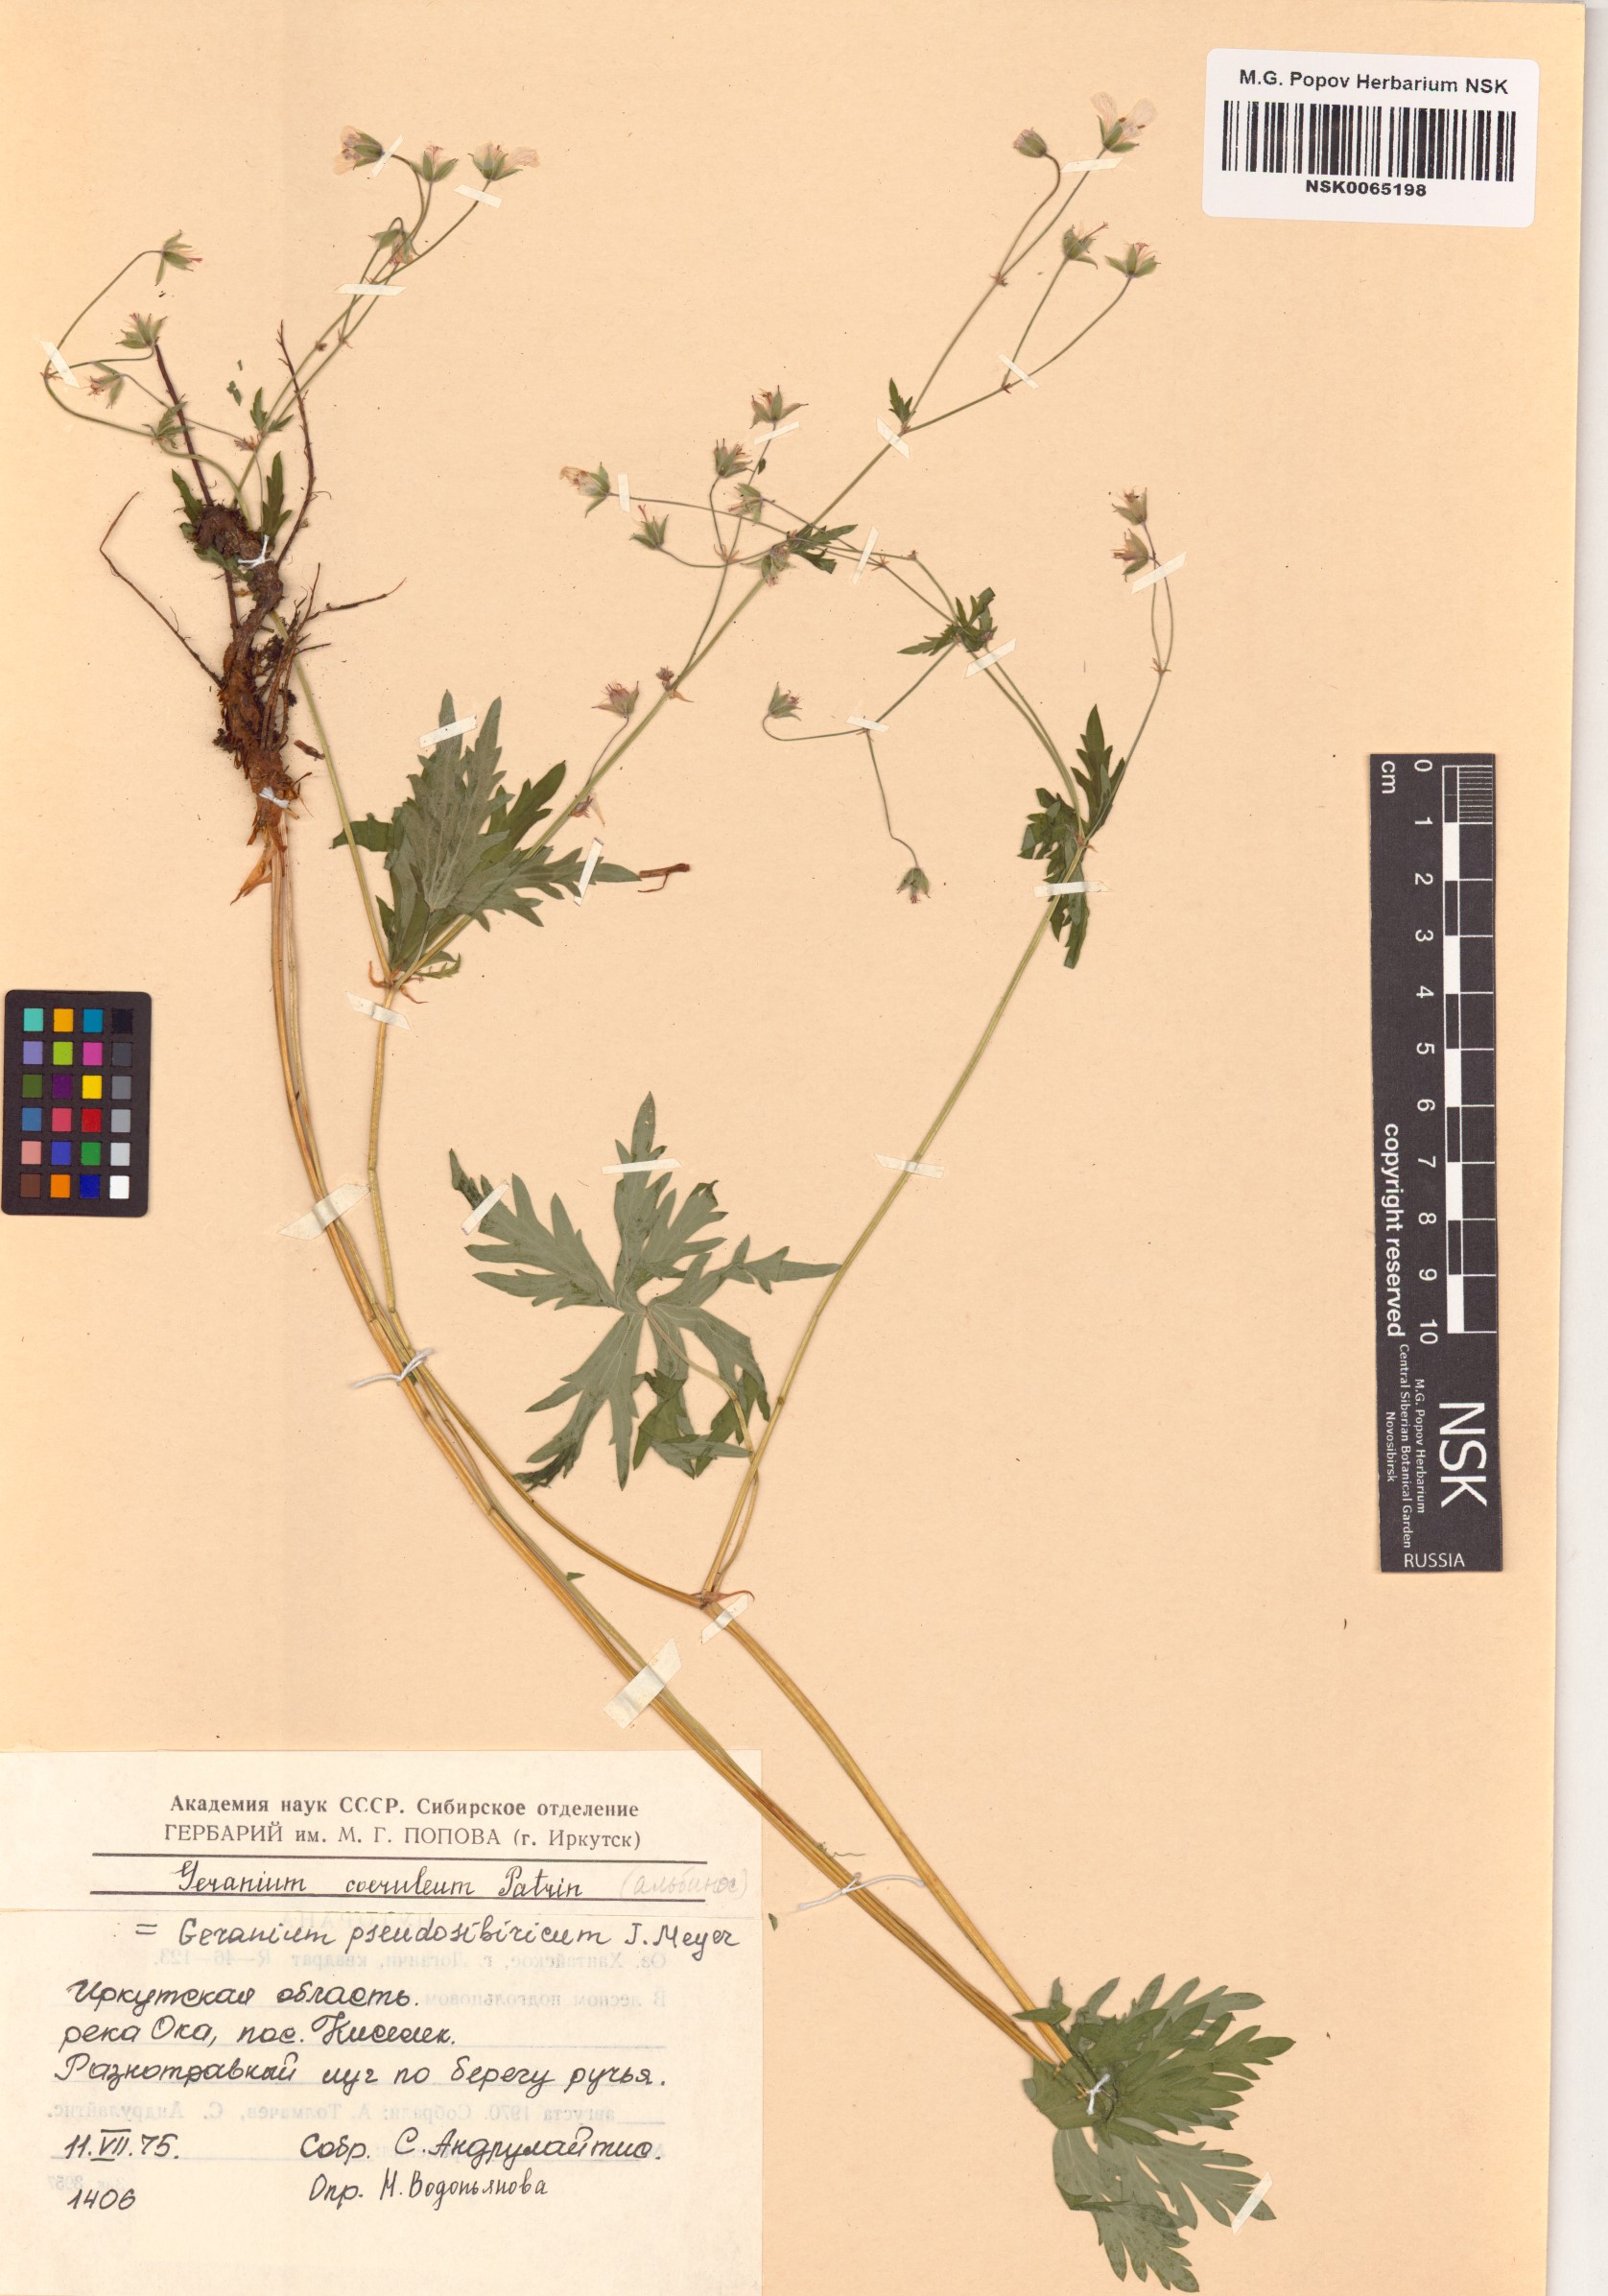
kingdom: Plantae
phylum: Tracheophyta
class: Magnoliopsida
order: Geraniales
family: Geraniaceae
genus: Geranium
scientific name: Geranium pseudosibiricum
